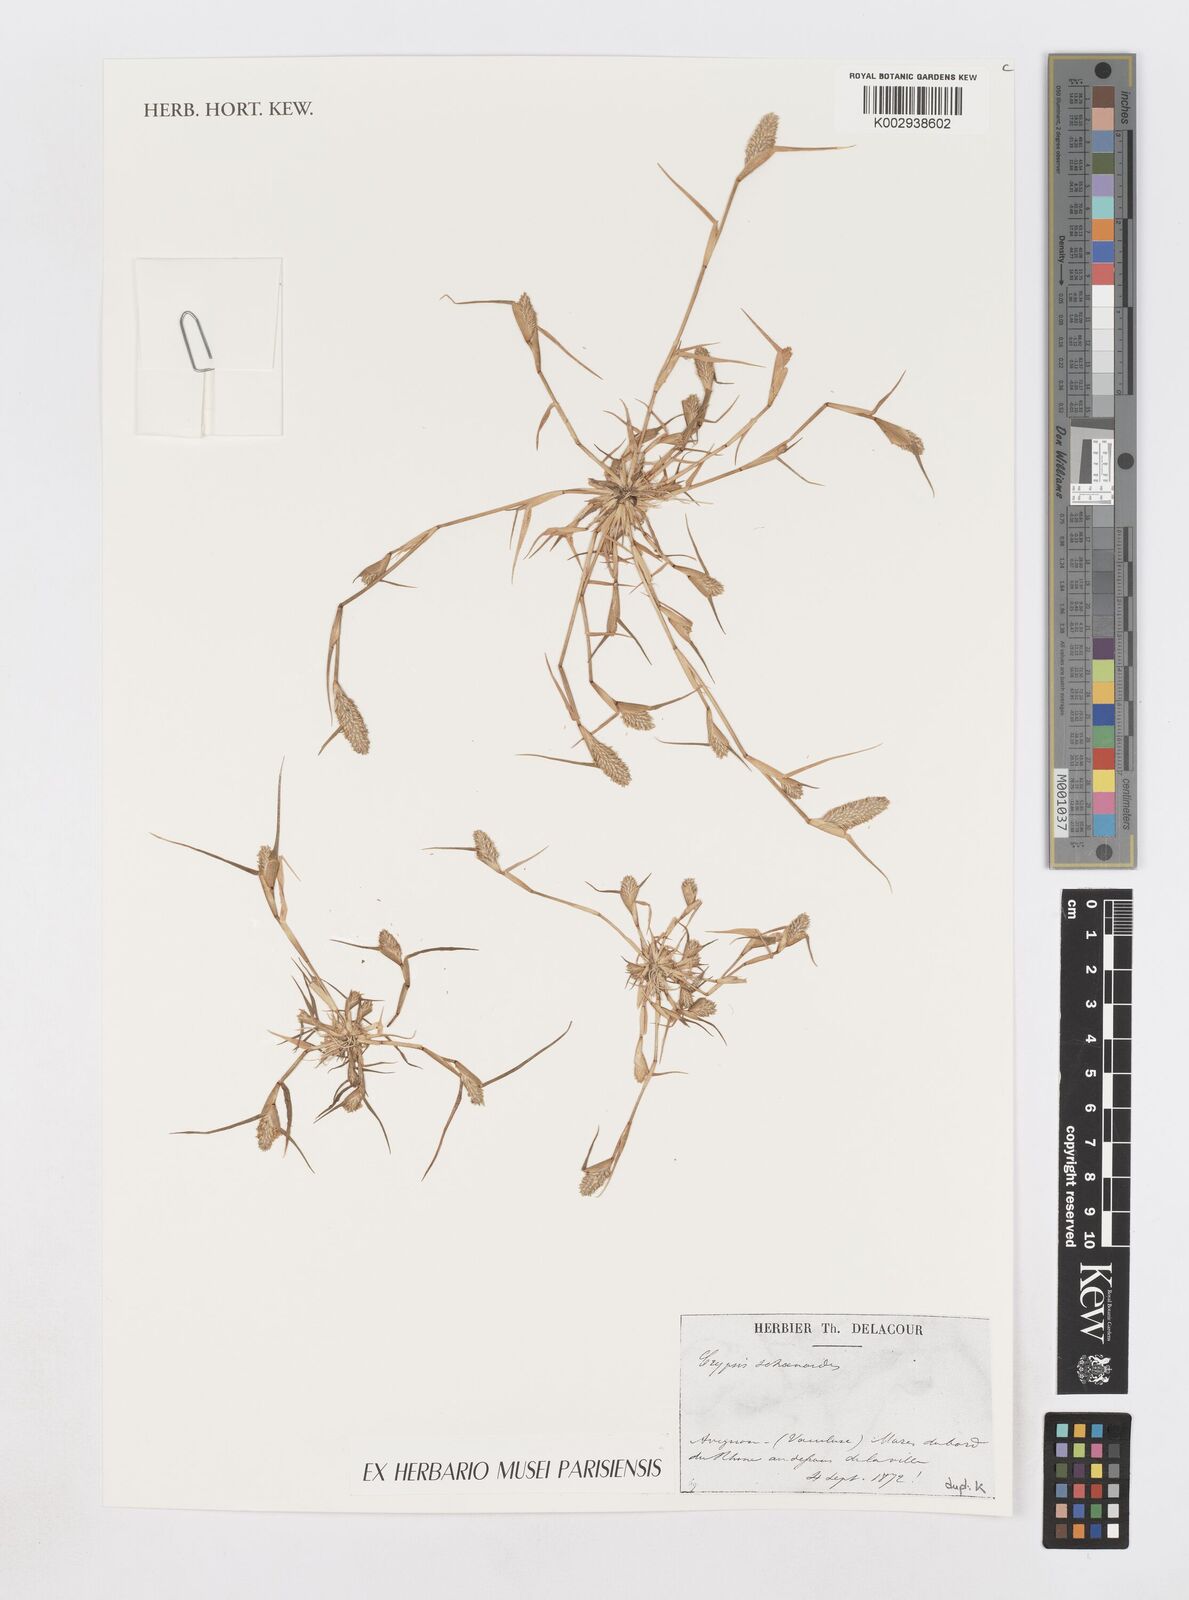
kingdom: Plantae
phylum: Tracheophyta
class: Liliopsida
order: Poales
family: Poaceae
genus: Sporobolus
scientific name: Sporobolus schoenoides
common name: Rush-like timothy
